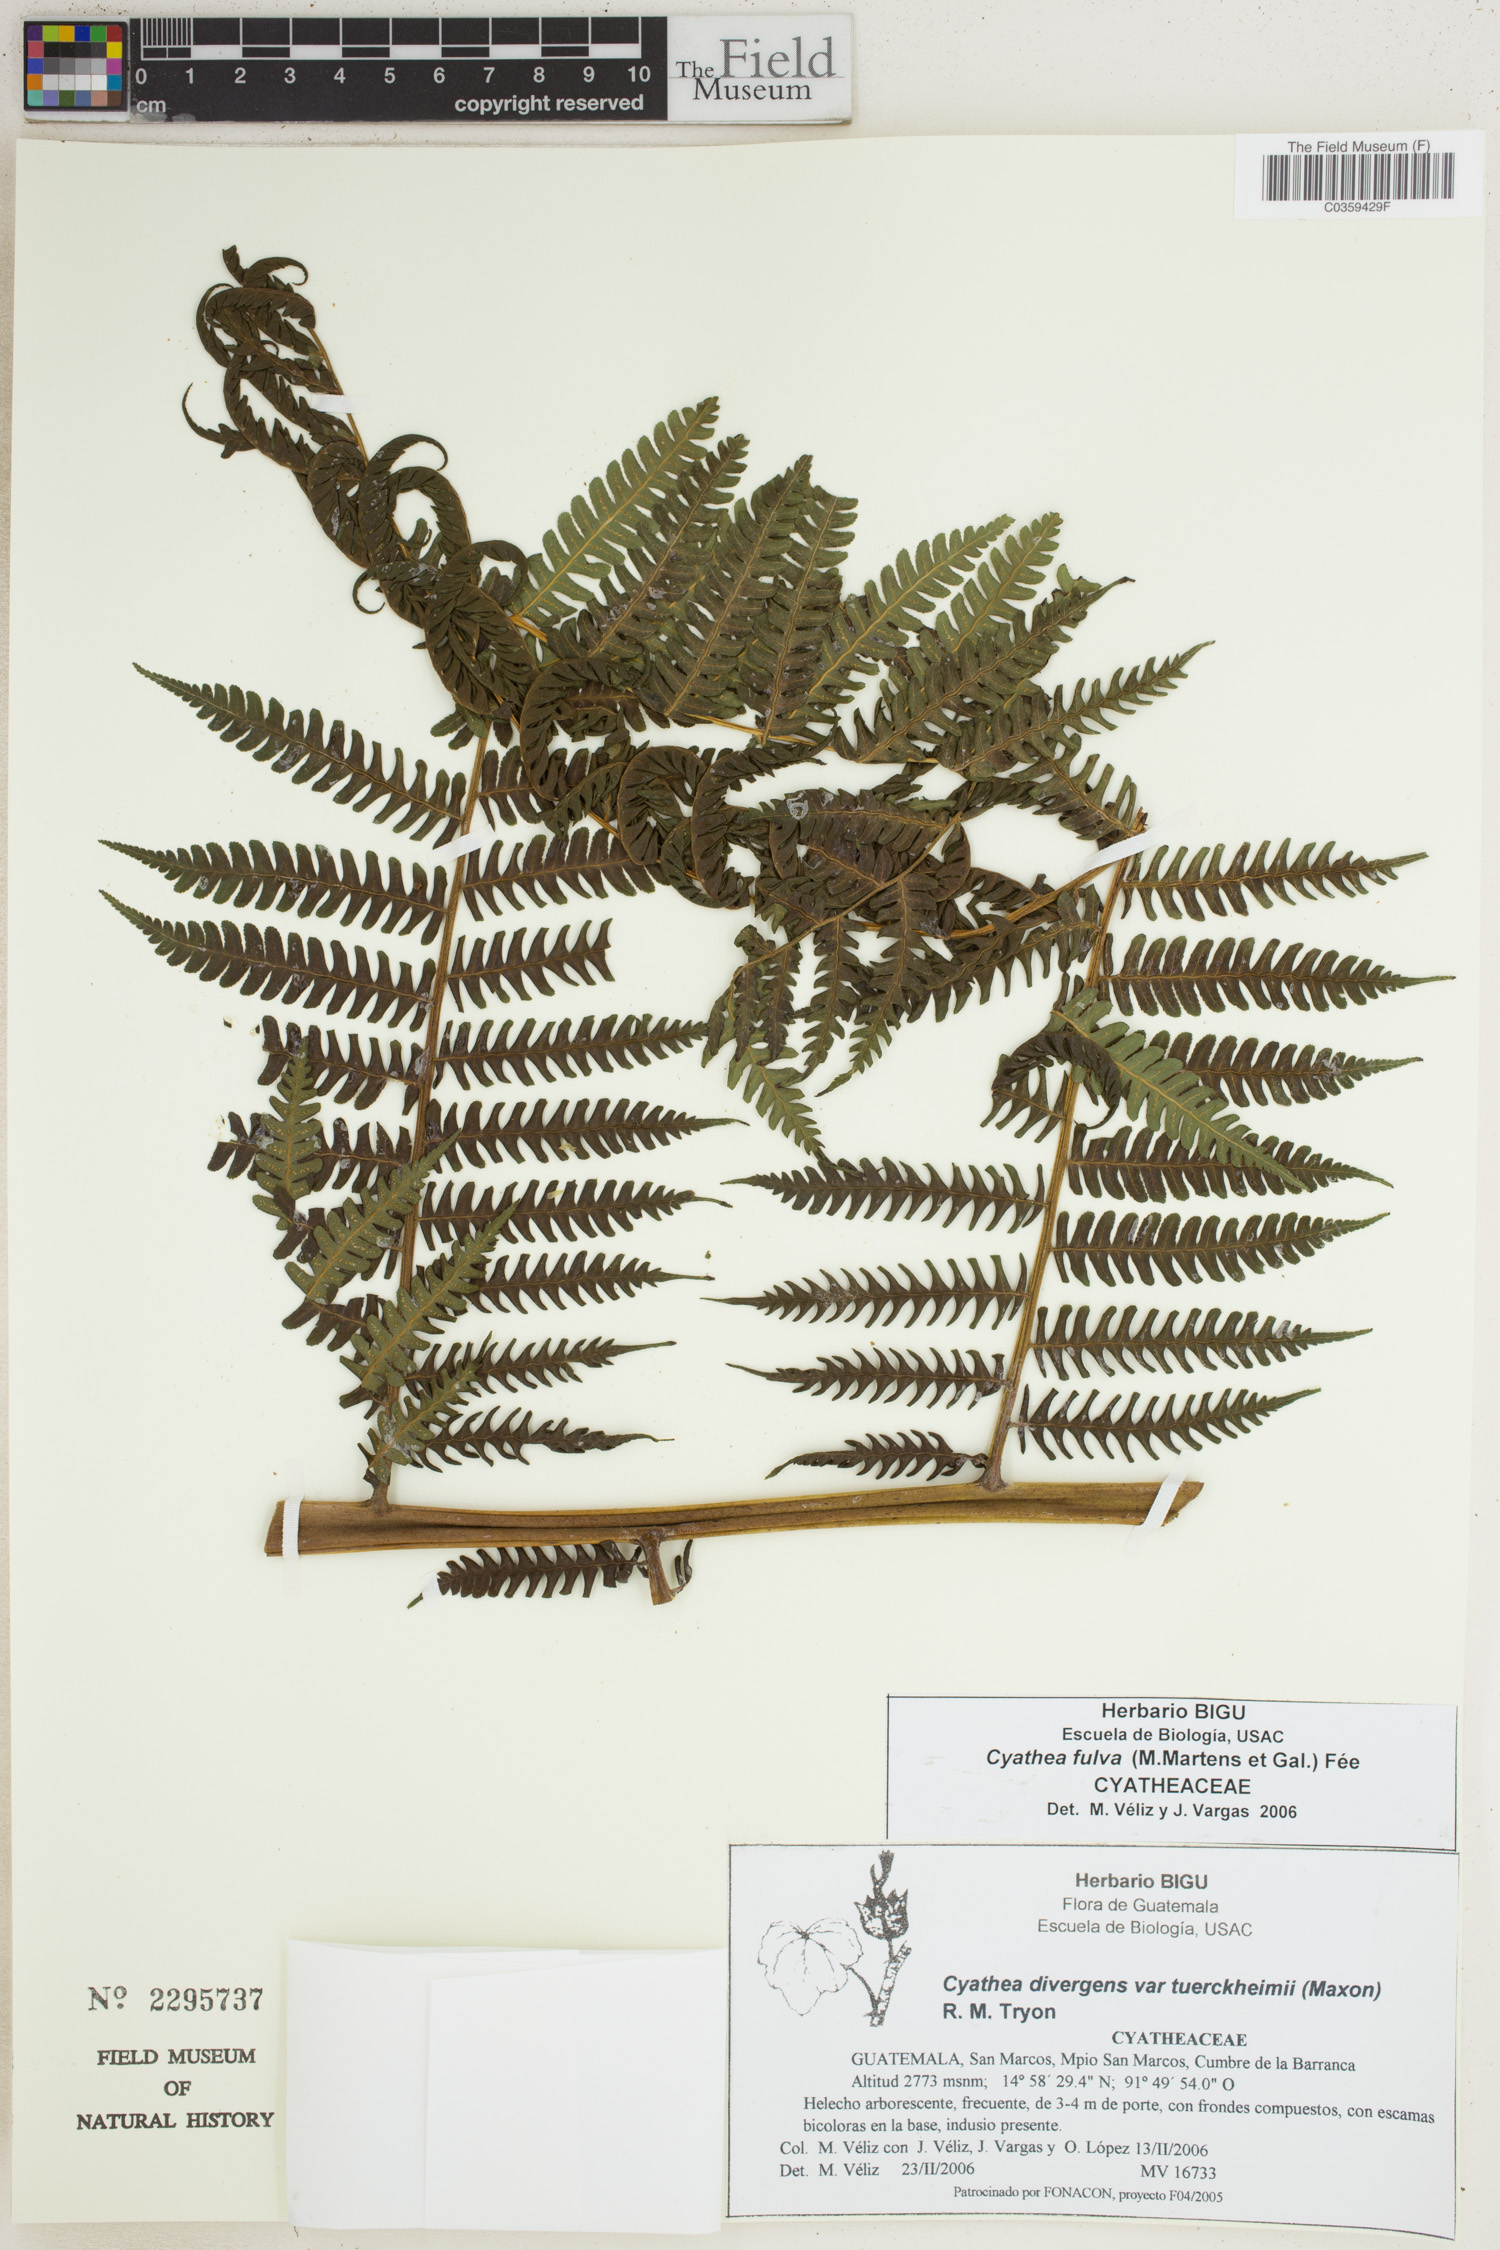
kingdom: Plantae
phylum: Tracheophyta
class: Polypodiopsida
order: Cyatheales
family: Cyatheaceae
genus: Cyathea
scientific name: Cyathea fulva
